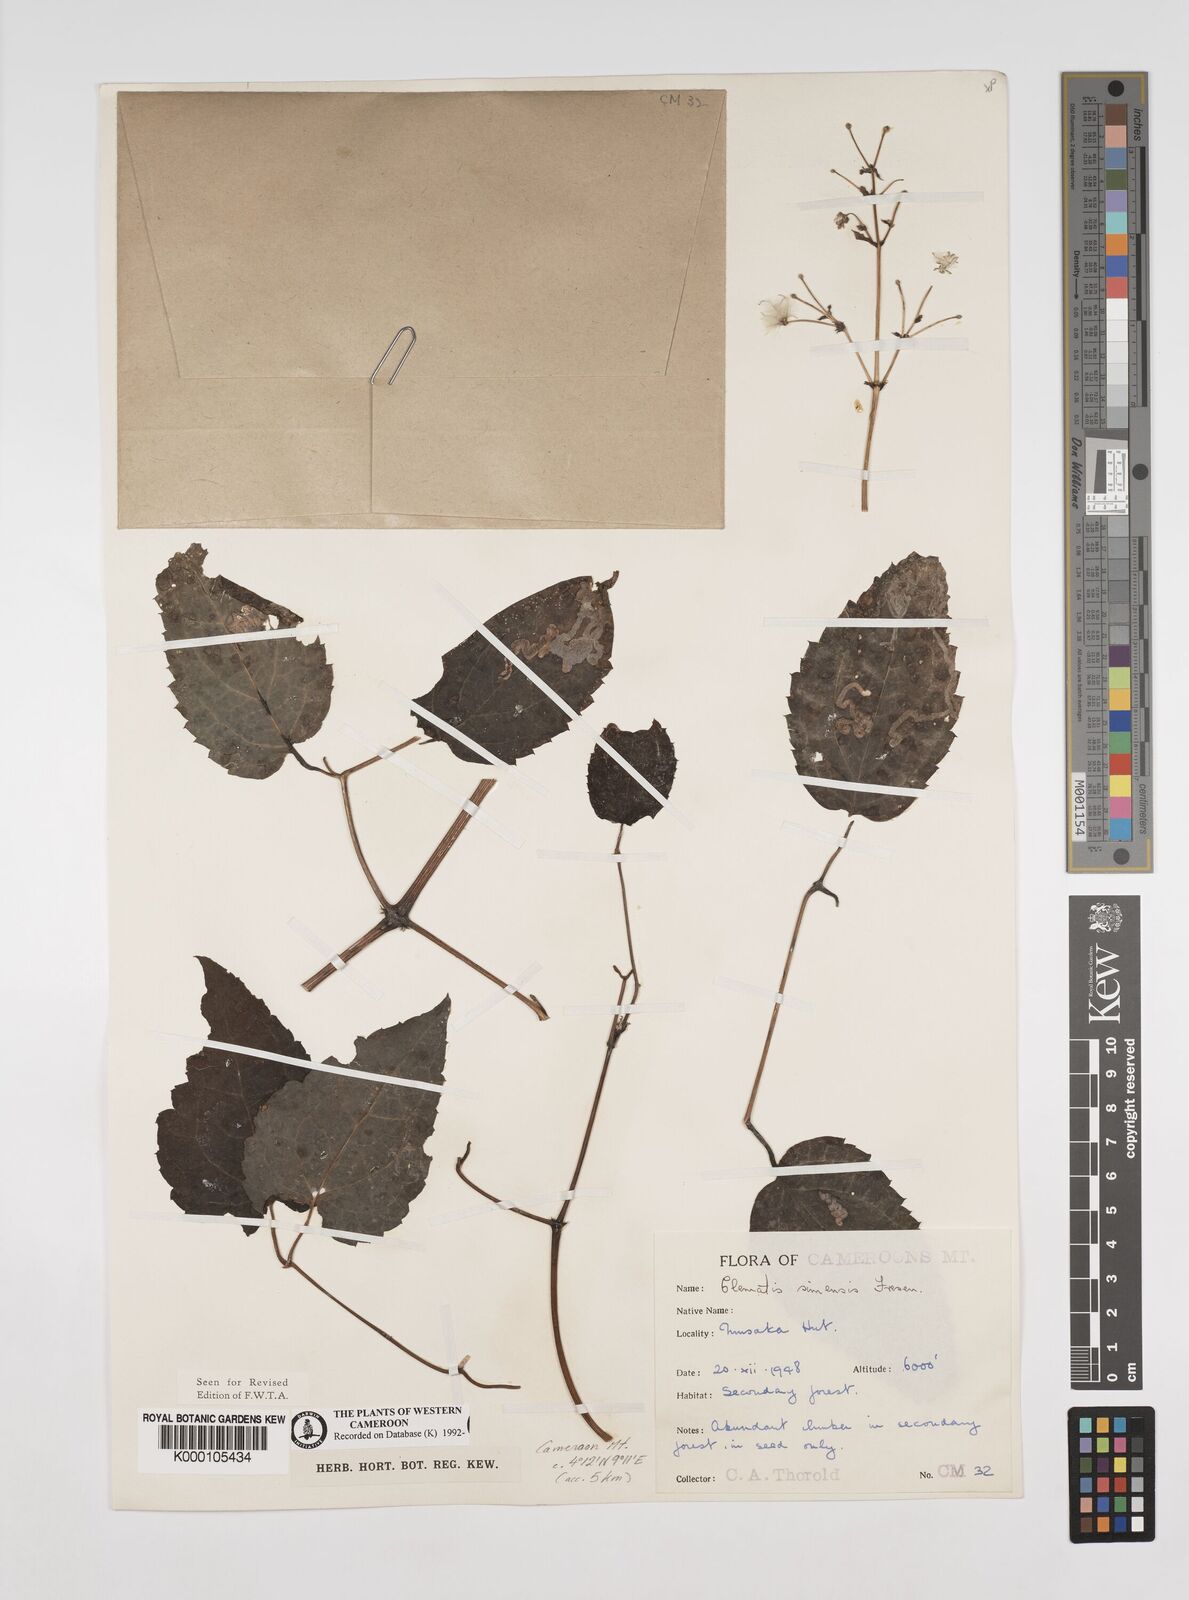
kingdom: Plantae
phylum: Tracheophyta
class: Magnoliopsida
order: Ranunculales
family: Ranunculaceae
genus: Clematis
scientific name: Clematis simensis
